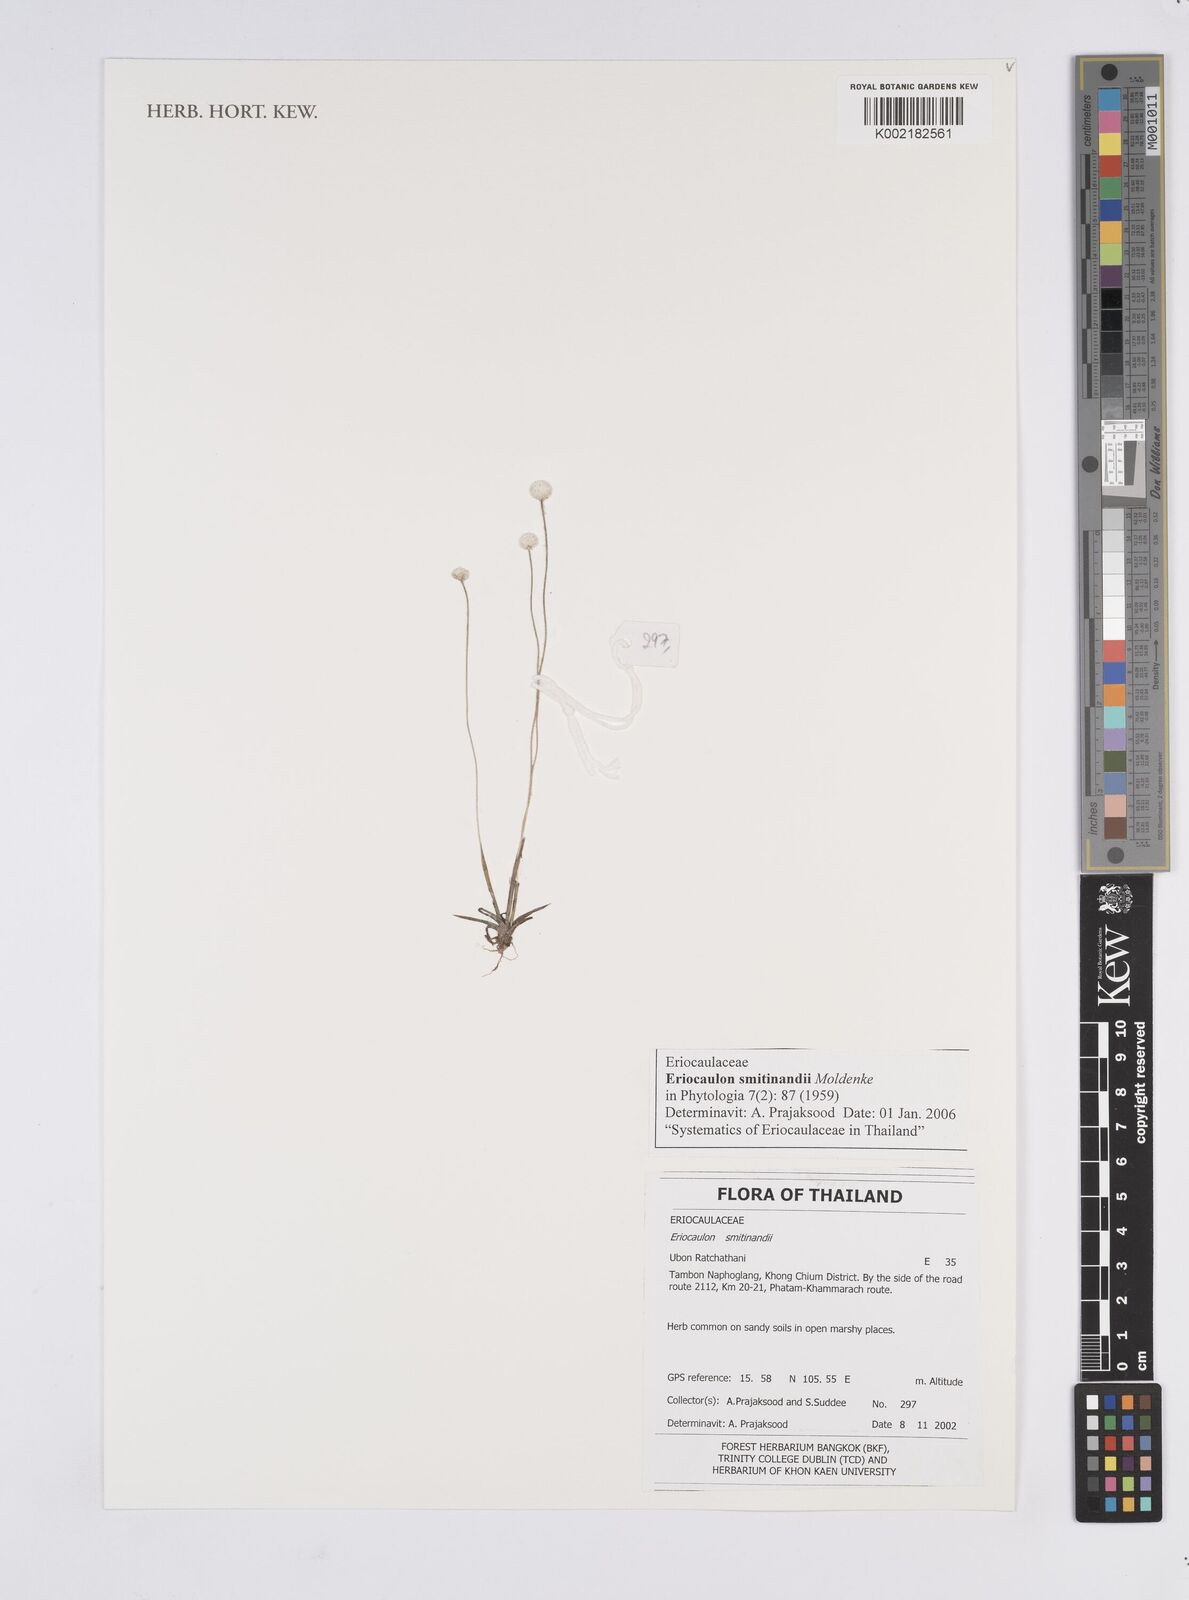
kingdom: Plantae
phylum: Tracheophyta
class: Liliopsida
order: Poales
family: Eriocaulaceae
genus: Eriocaulon
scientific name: Eriocaulon smitinandii
